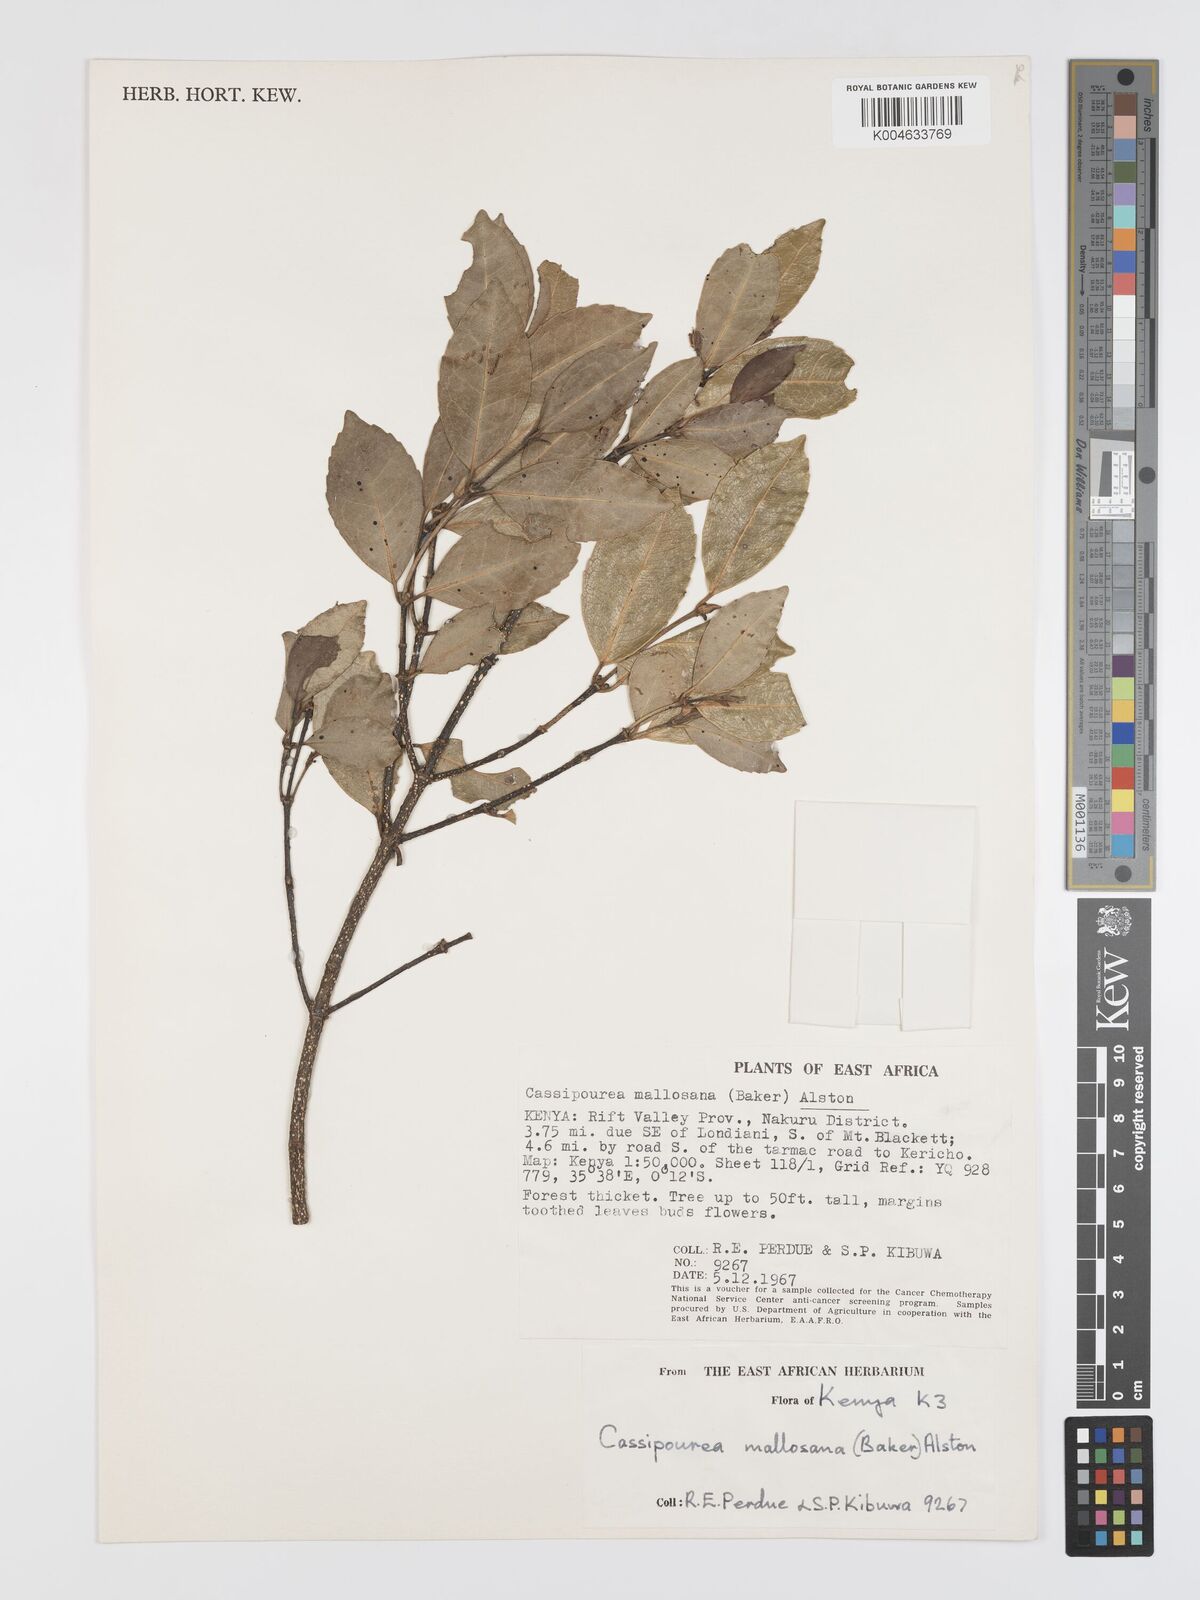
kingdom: Plantae
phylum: Tracheophyta
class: Magnoliopsida
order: Malpighiales
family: Rhizophoraceae
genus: Cassipourea
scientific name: Cassipourea malosana
